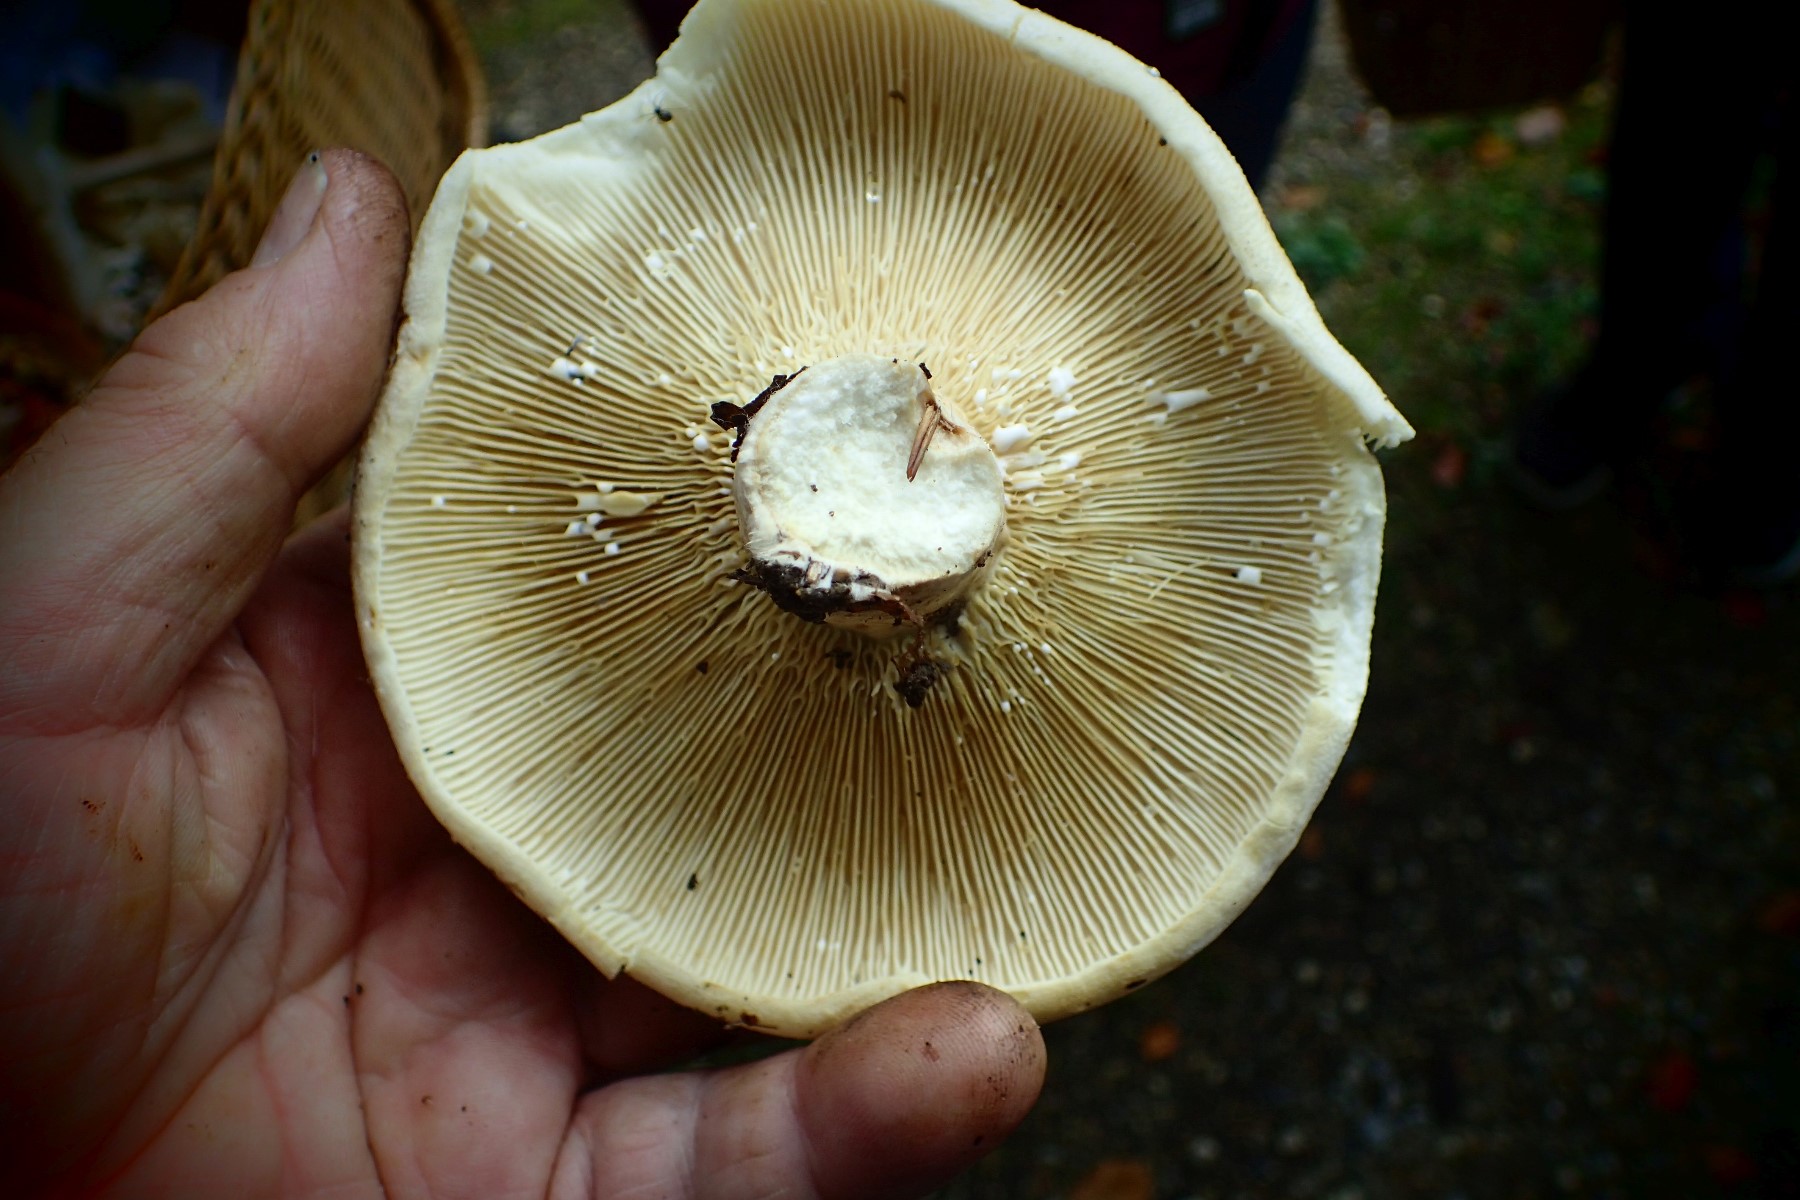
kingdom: Fungi
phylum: Basidiomycota
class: Agaricomycetes
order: Russulales
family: Russulaceae
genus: Lactifluus
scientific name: Lactifluus vellereus
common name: hvidfiltet mælkehat
